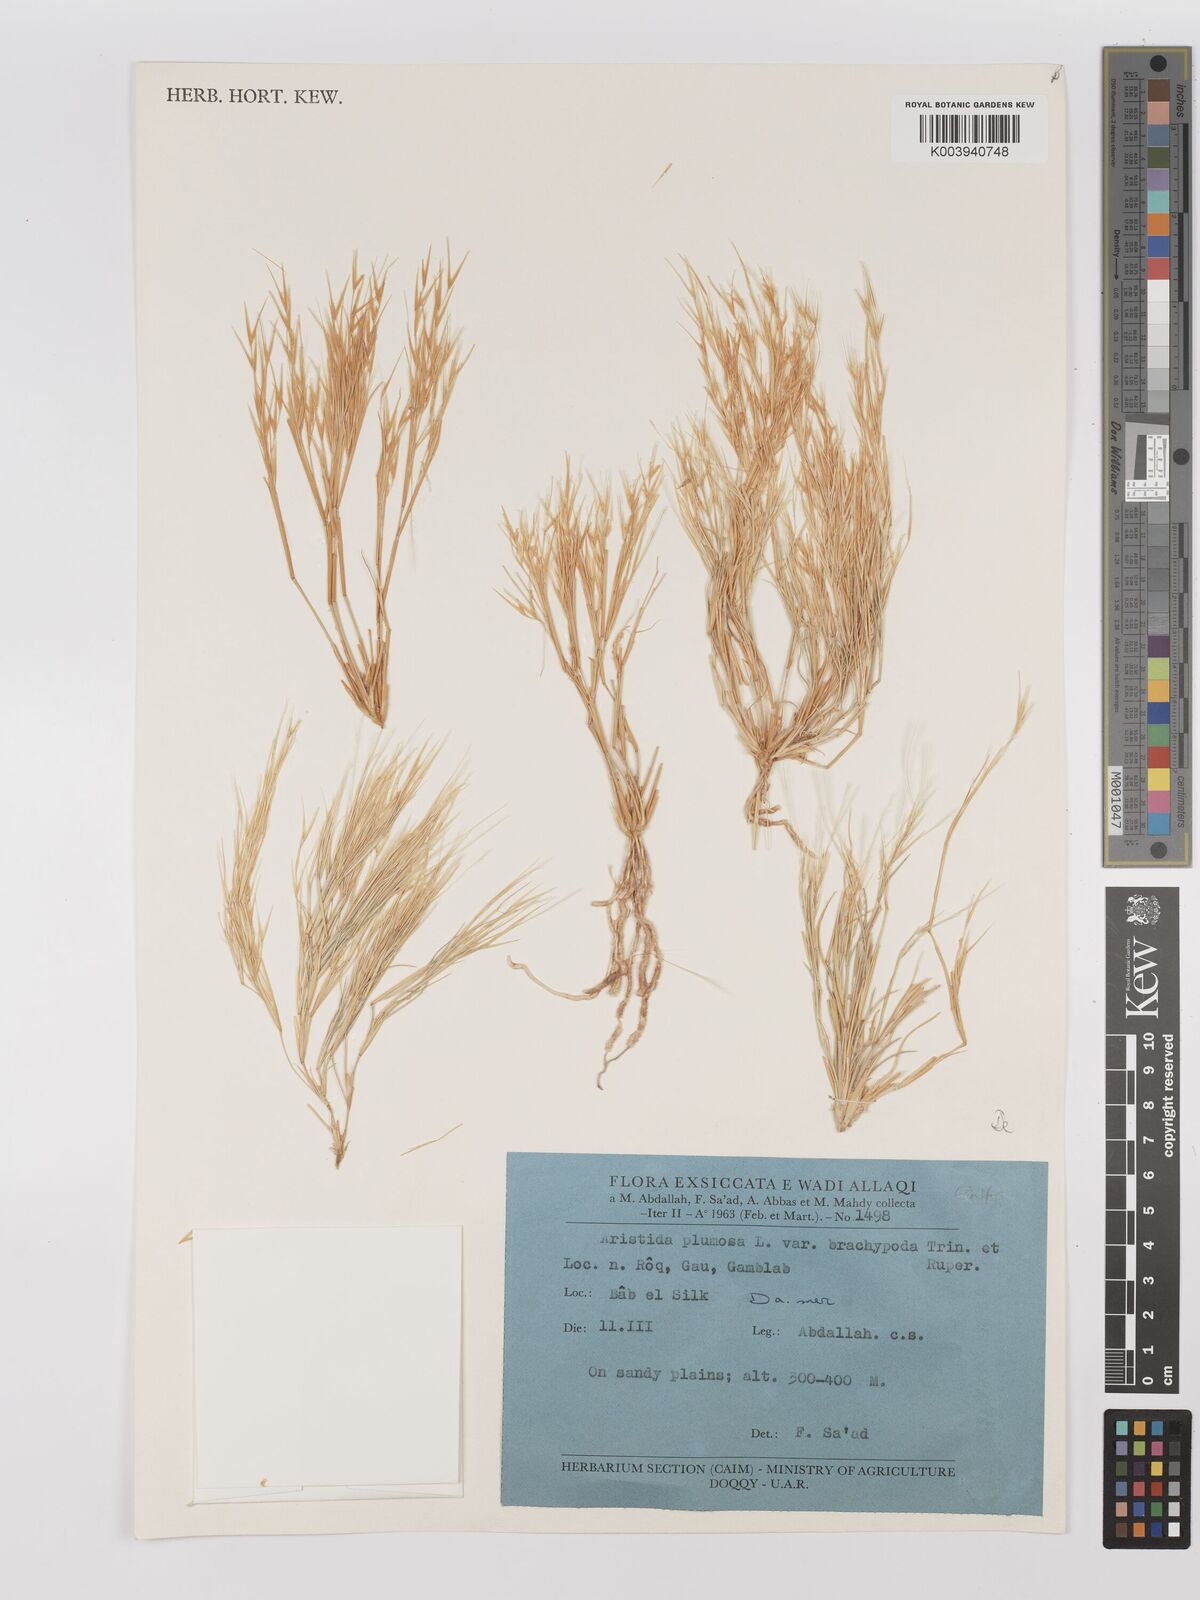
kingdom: Plantae
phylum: Tracheophyta
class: Liliopsida
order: Poales
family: Poaceae
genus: Stipagrostis
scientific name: Stipagrostis plumosa
